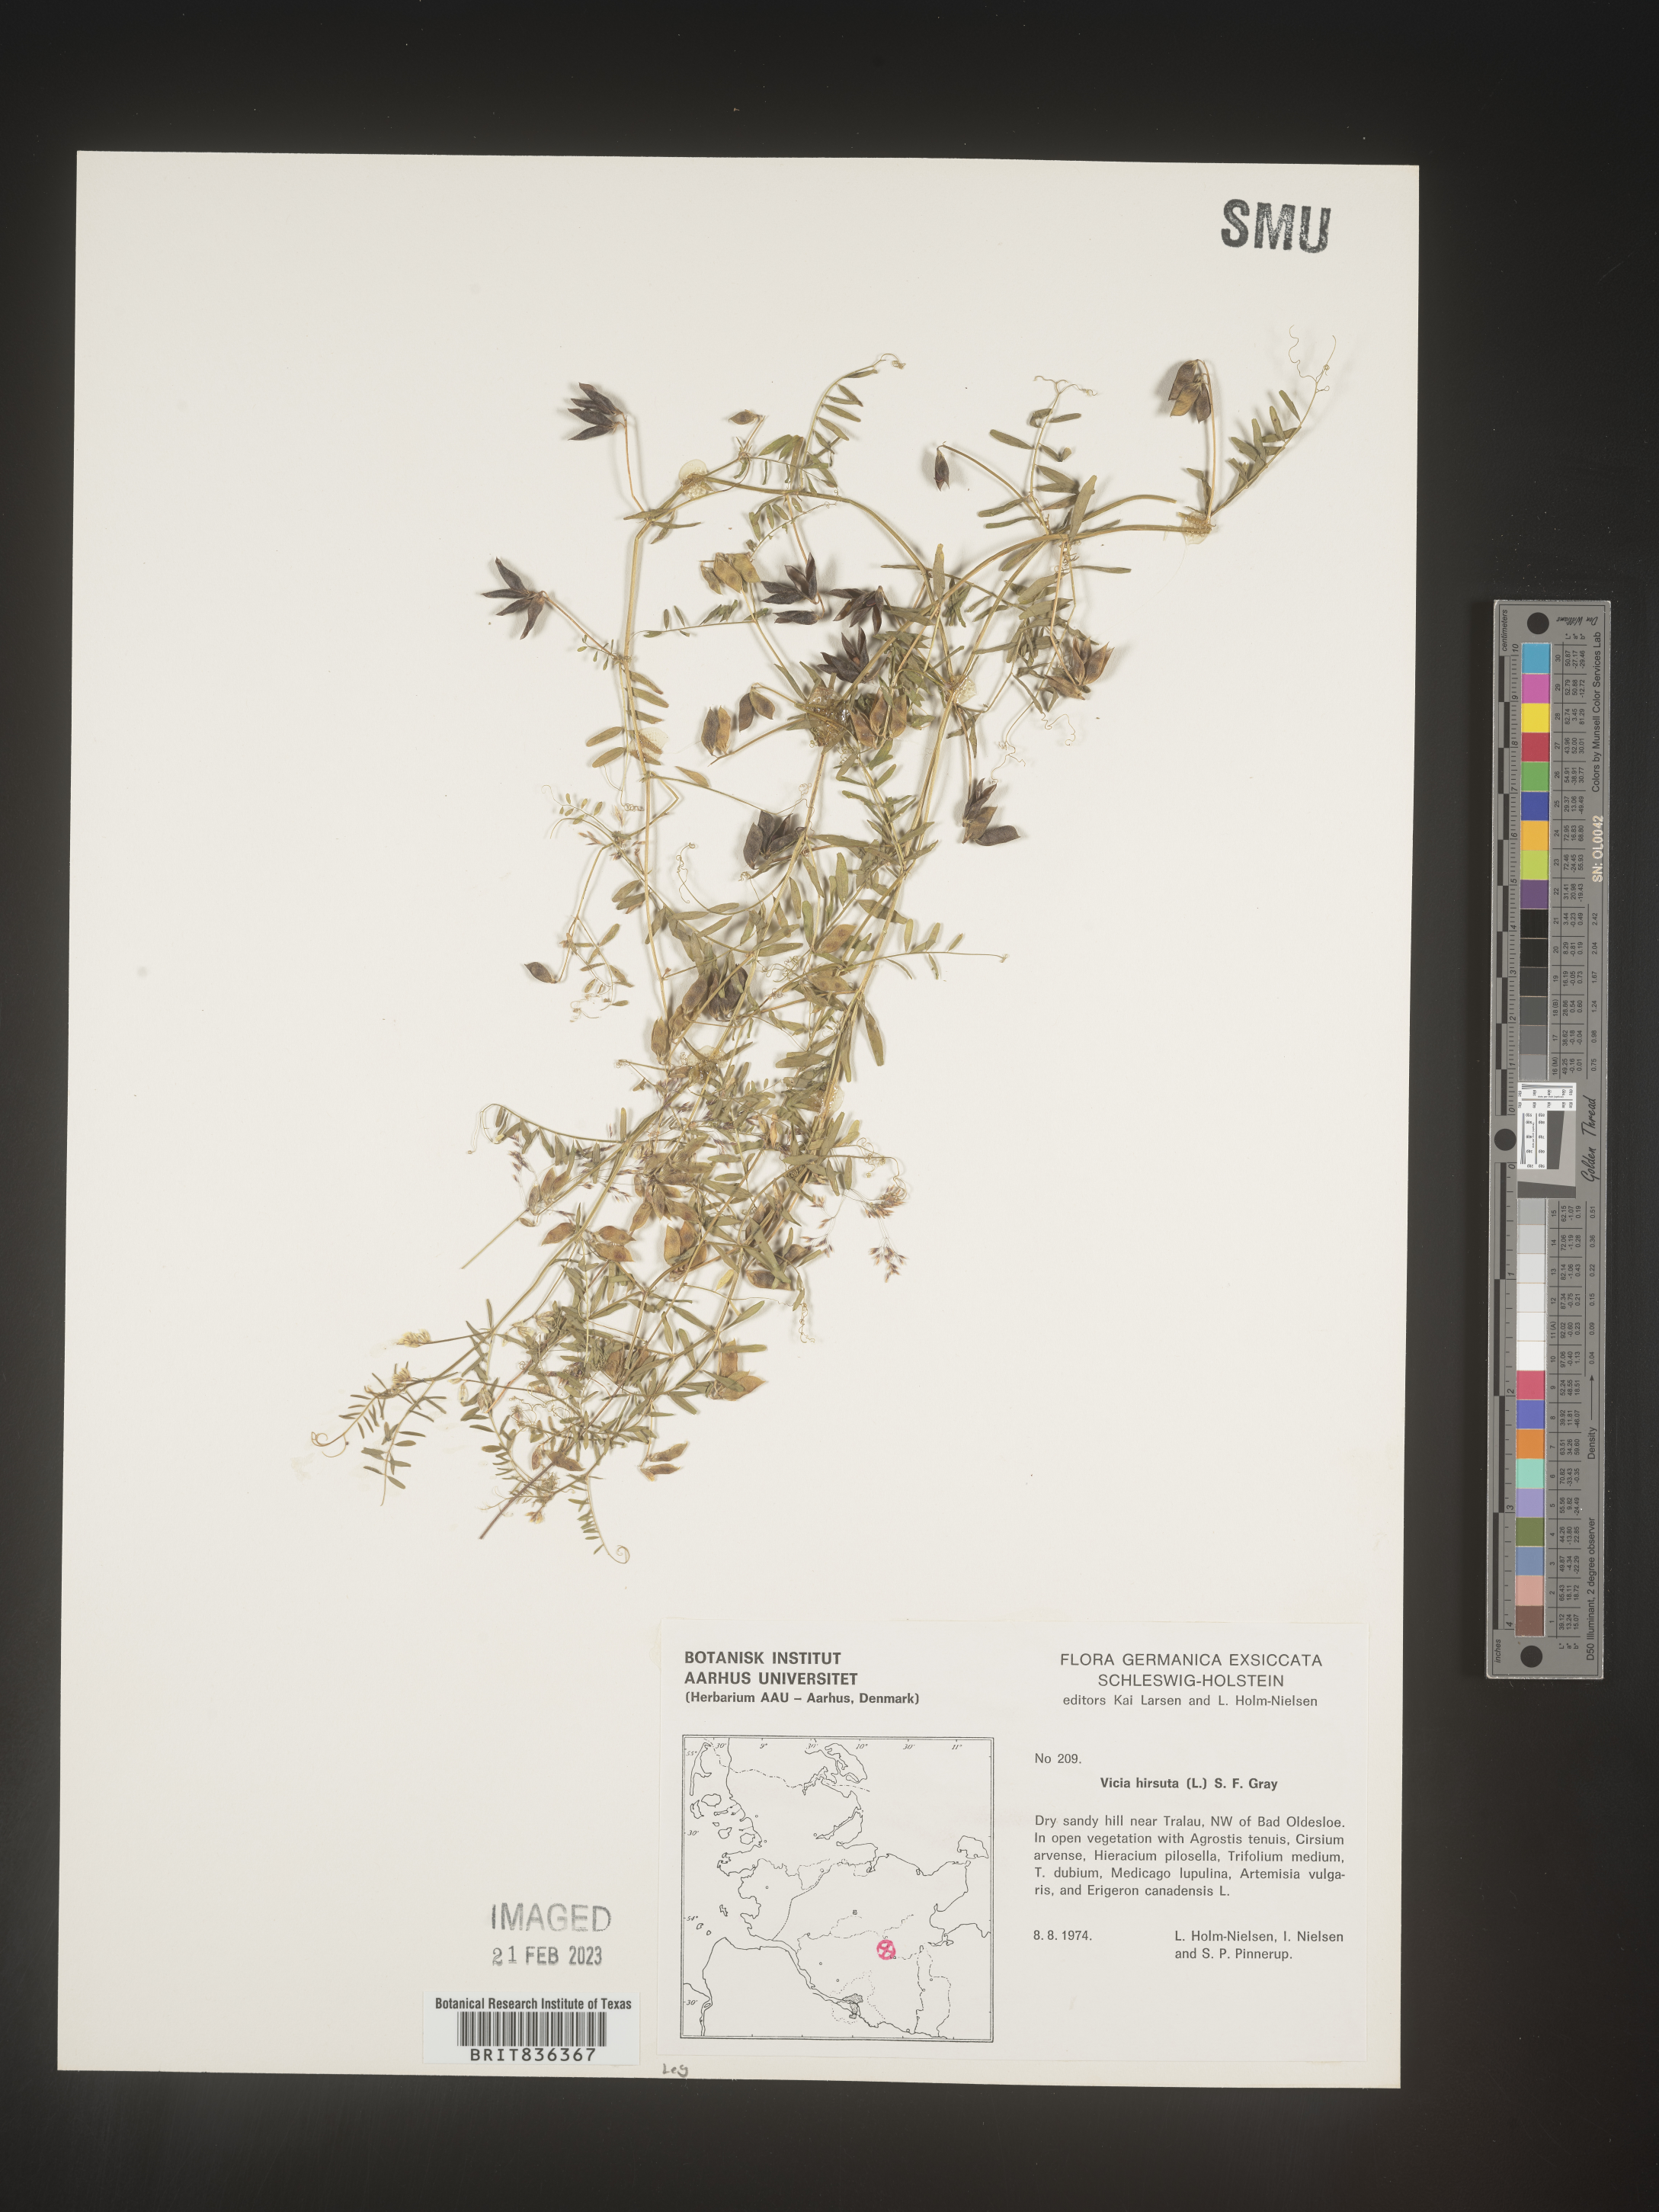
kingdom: Plantae
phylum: Tracheophyta
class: Magnoliopsida
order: Fabales
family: Fabaceae
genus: Vicia
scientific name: Vicia
